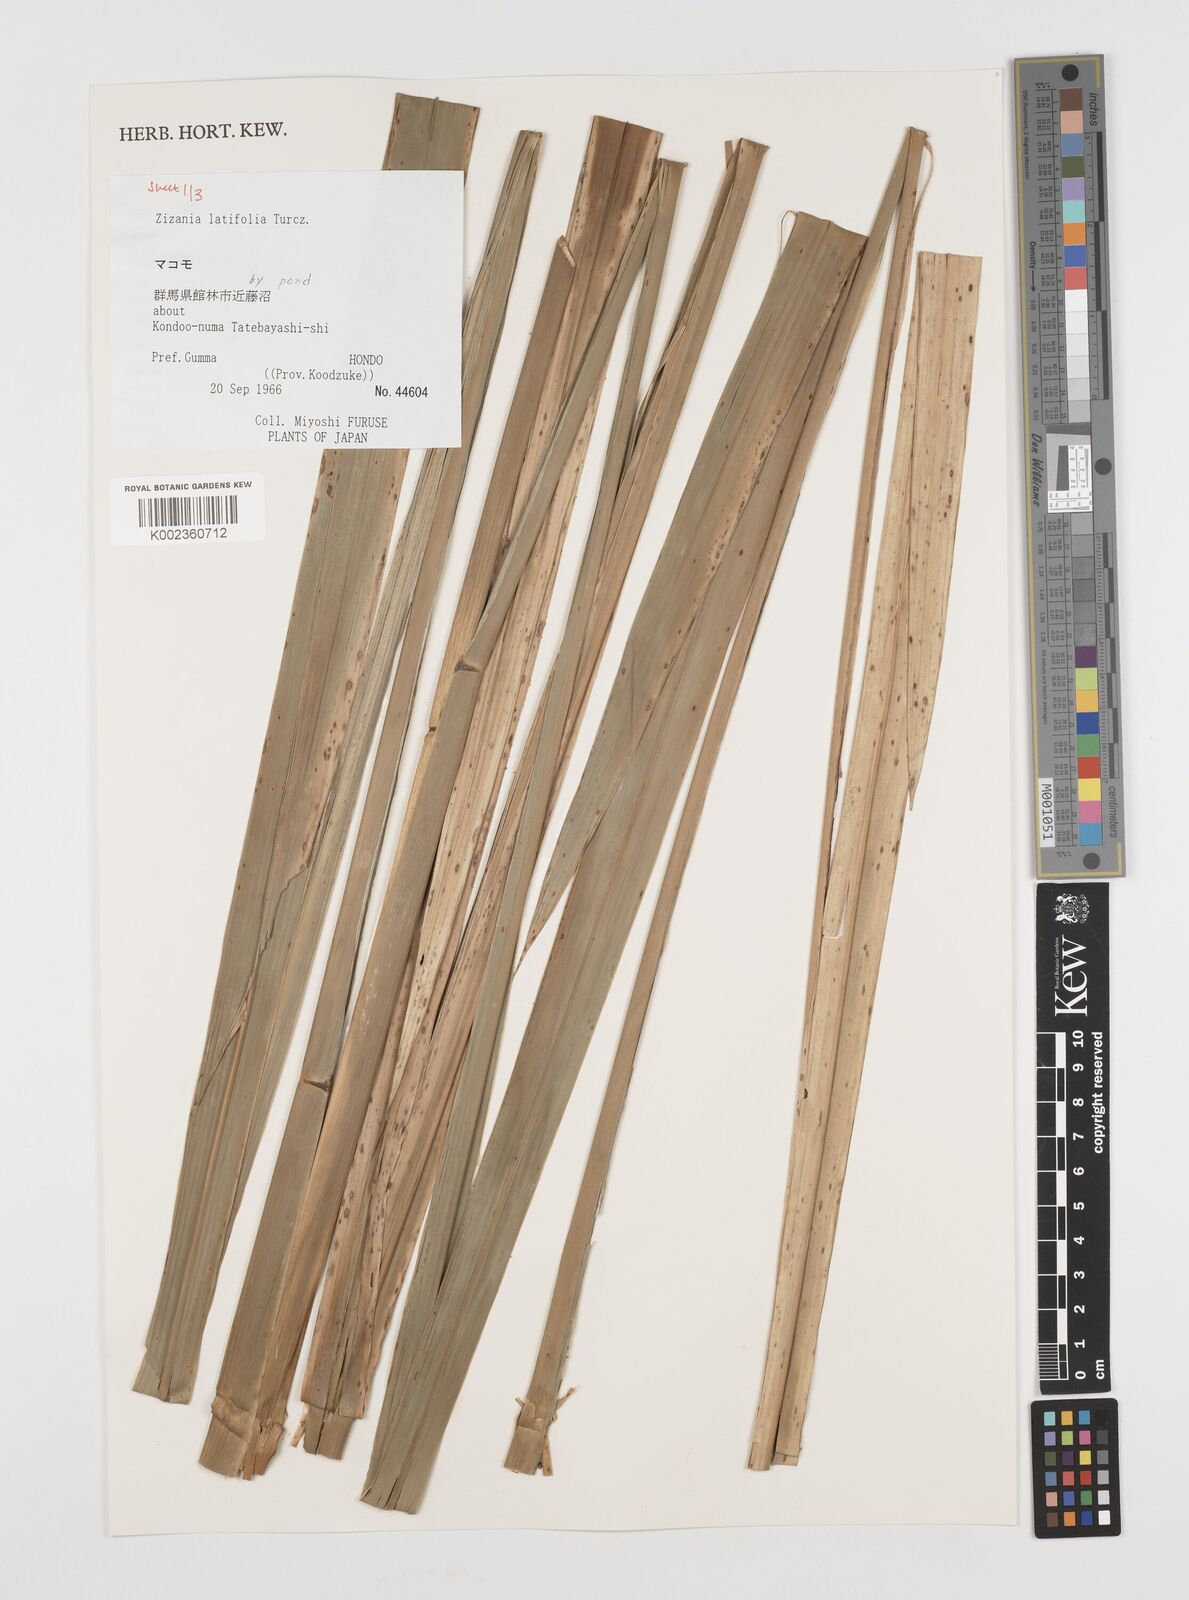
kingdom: Plantae
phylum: Tracheophyta
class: Liliopsida
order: Poales
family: Poaceae
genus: Zizania
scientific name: Zizania latifolia
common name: Manchurian wildrice
